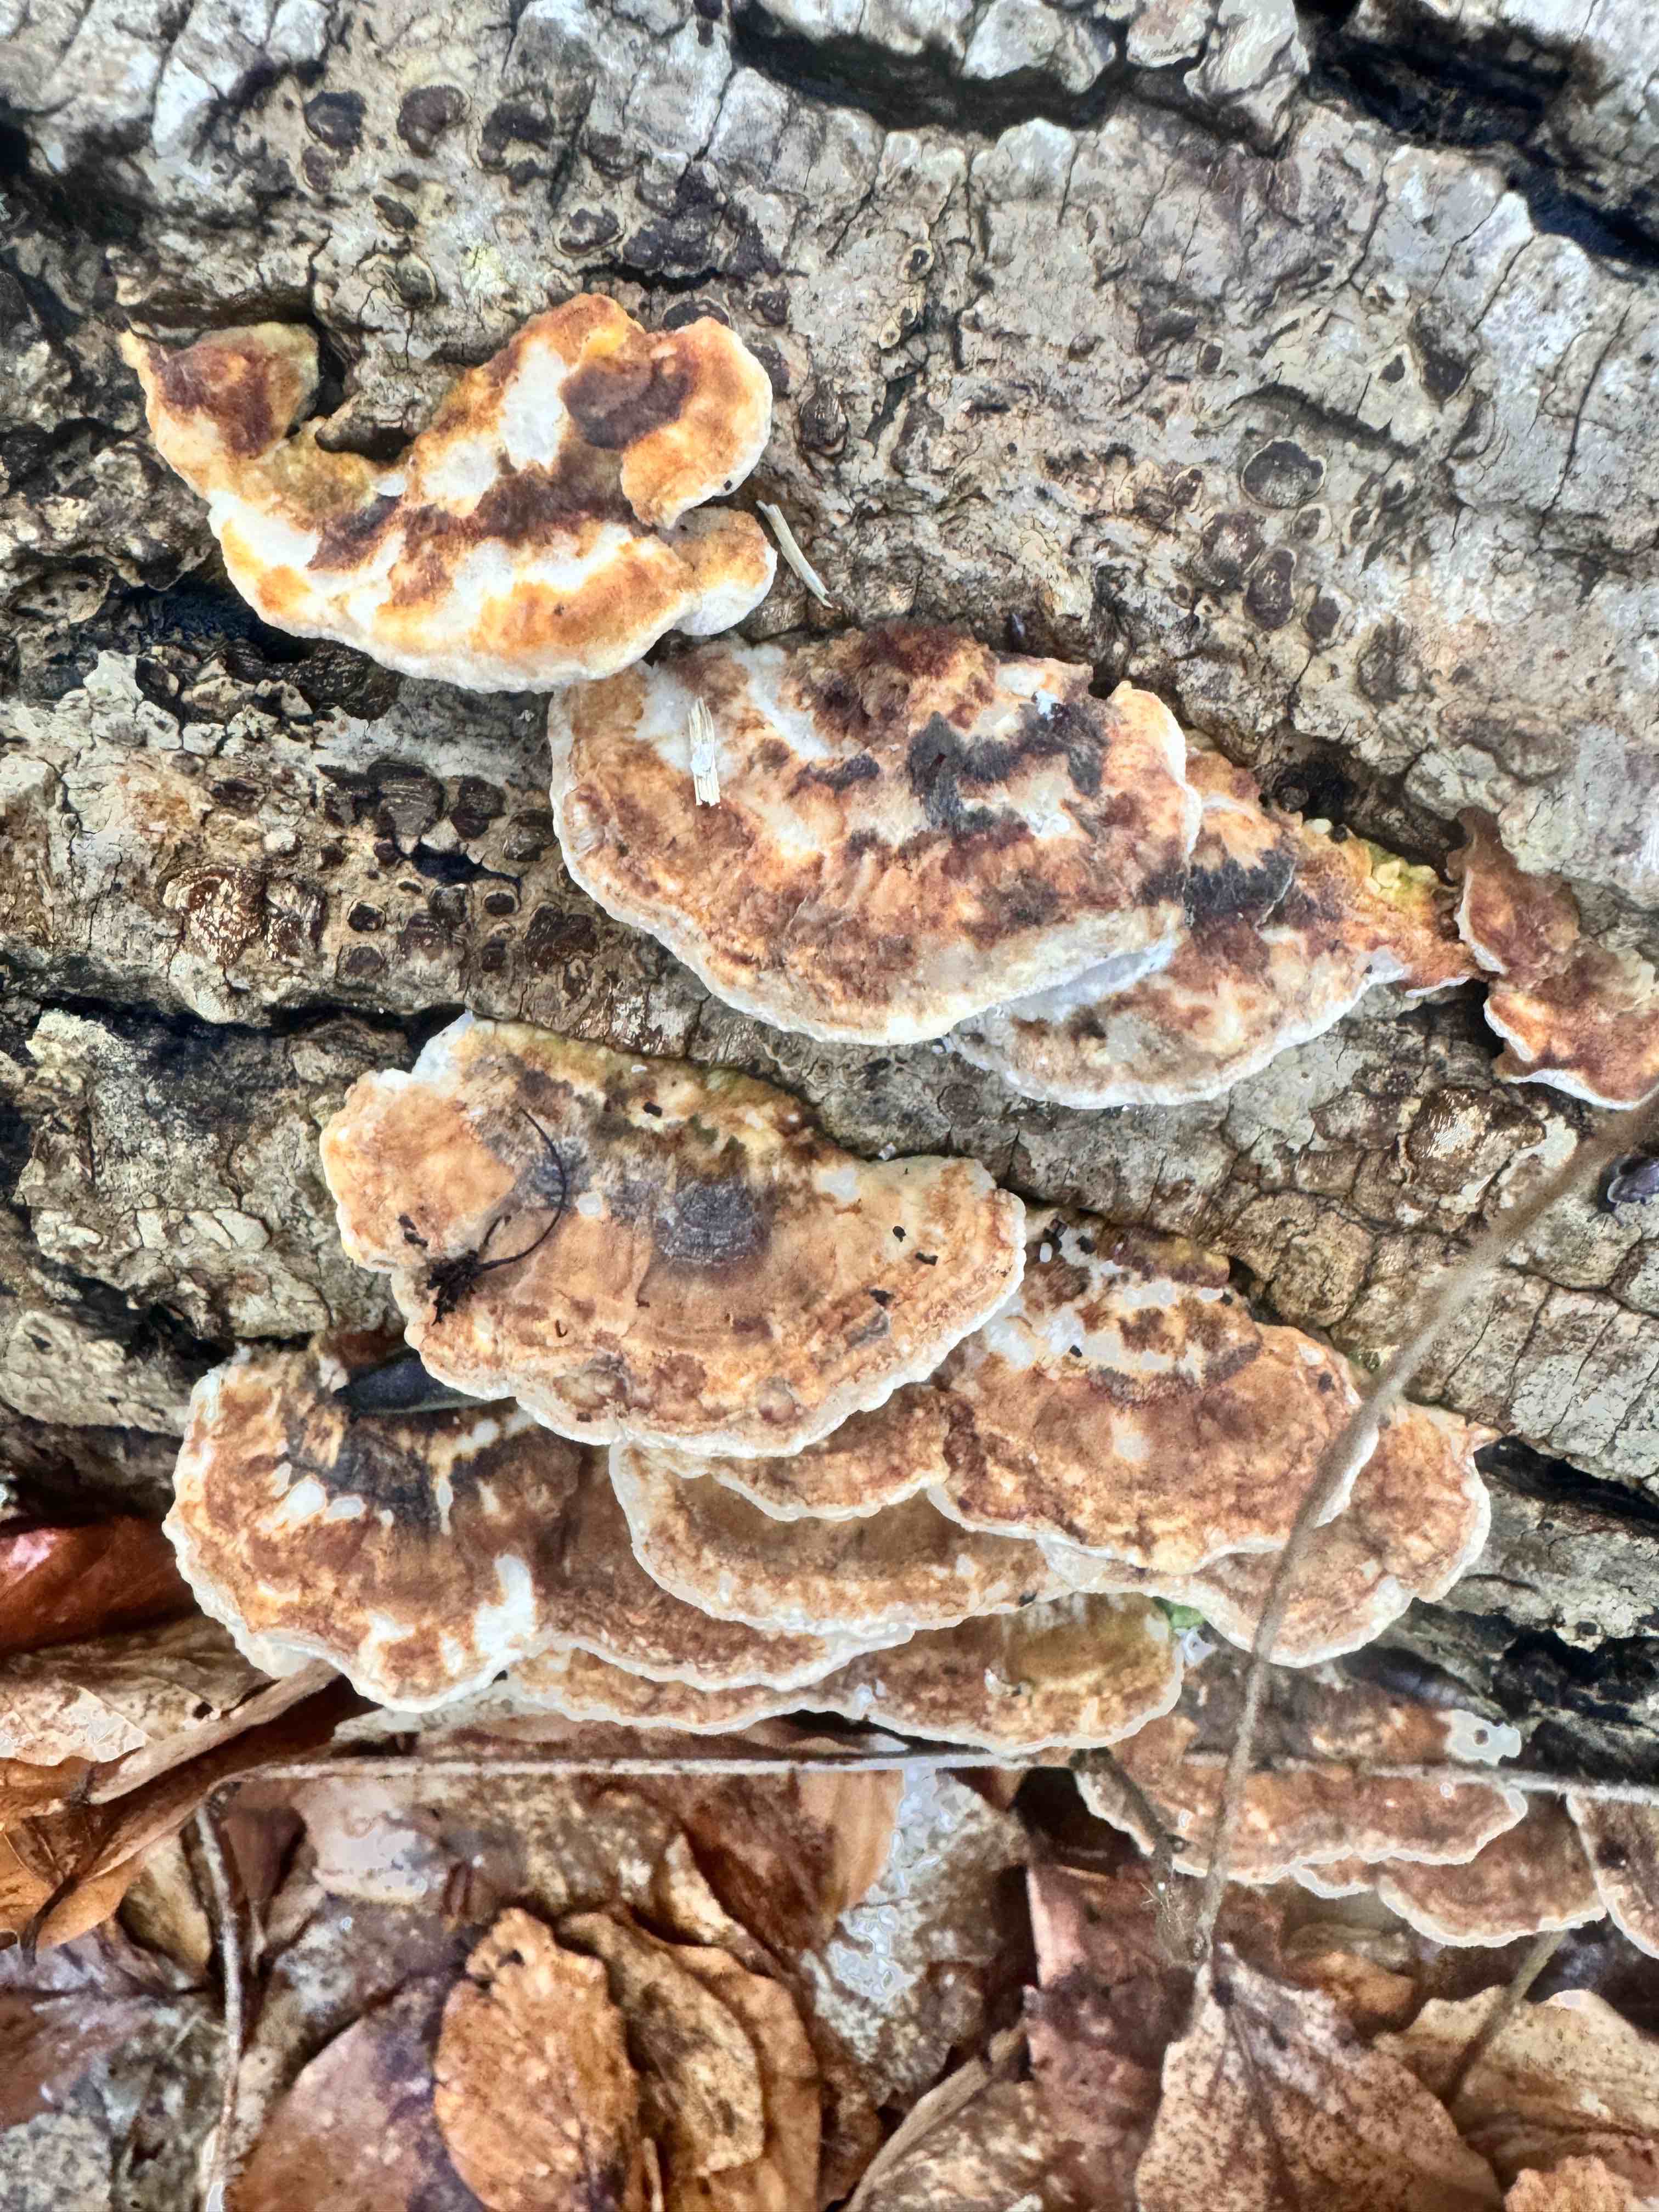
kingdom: Fungi
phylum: Basidiomycota
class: Agaricomycetes
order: Polyporales
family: Polyporaceae
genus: Trametes
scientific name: Trametes ochracea
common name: bæltet læderporesvamp
